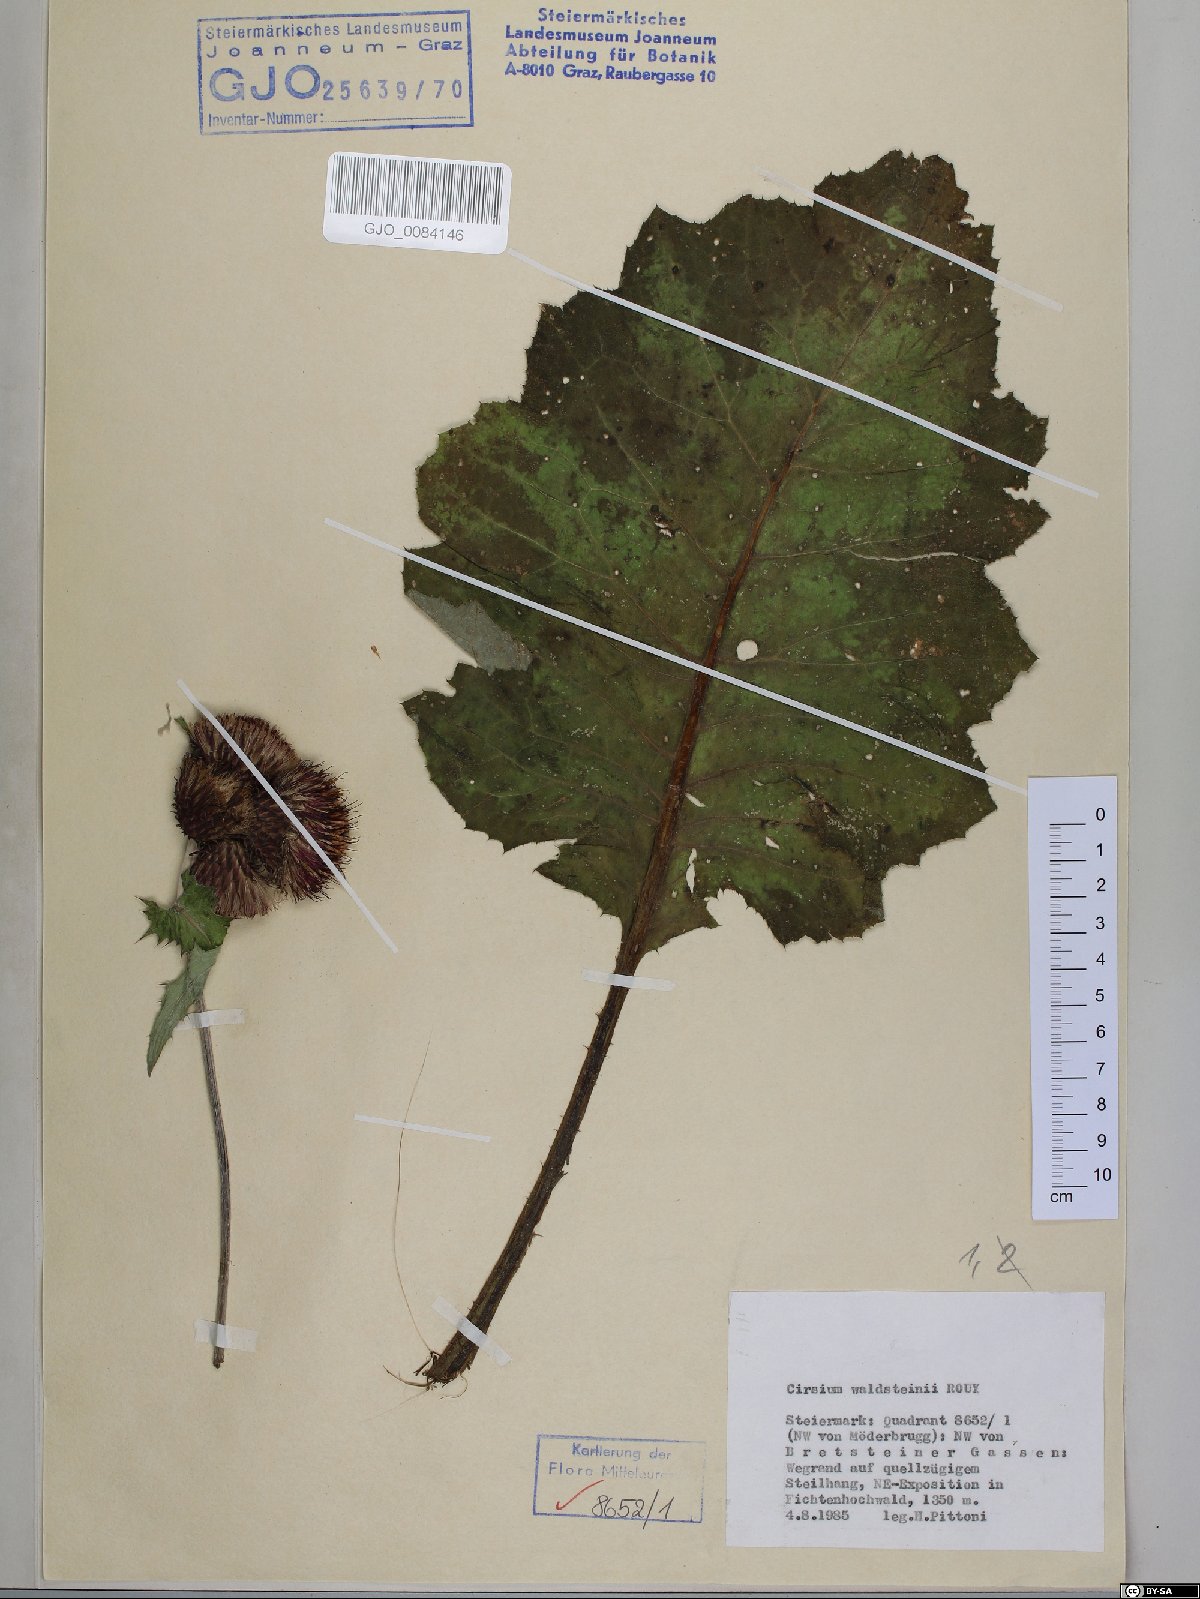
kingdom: Plantae
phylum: Tracheophyta
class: Magnoliopsida
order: Asterales
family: Asteraceae
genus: Cirsium
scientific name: Cirsium greimleri
